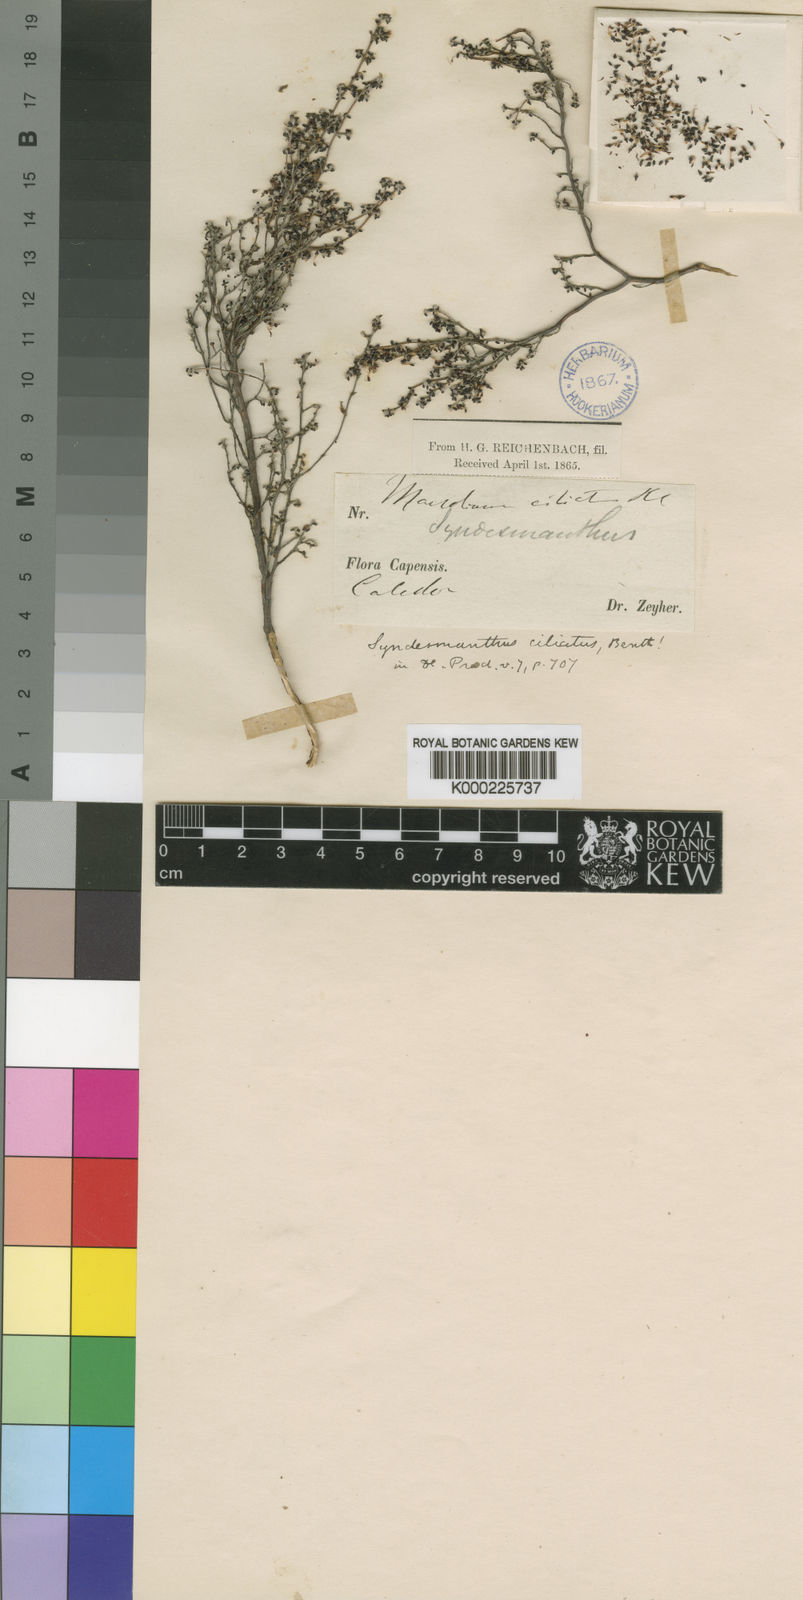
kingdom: Plantae
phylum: Tracheophyta
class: Magnoliopsida
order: Ericales
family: Ericaceae
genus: Erica
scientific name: Erica paucifolia
